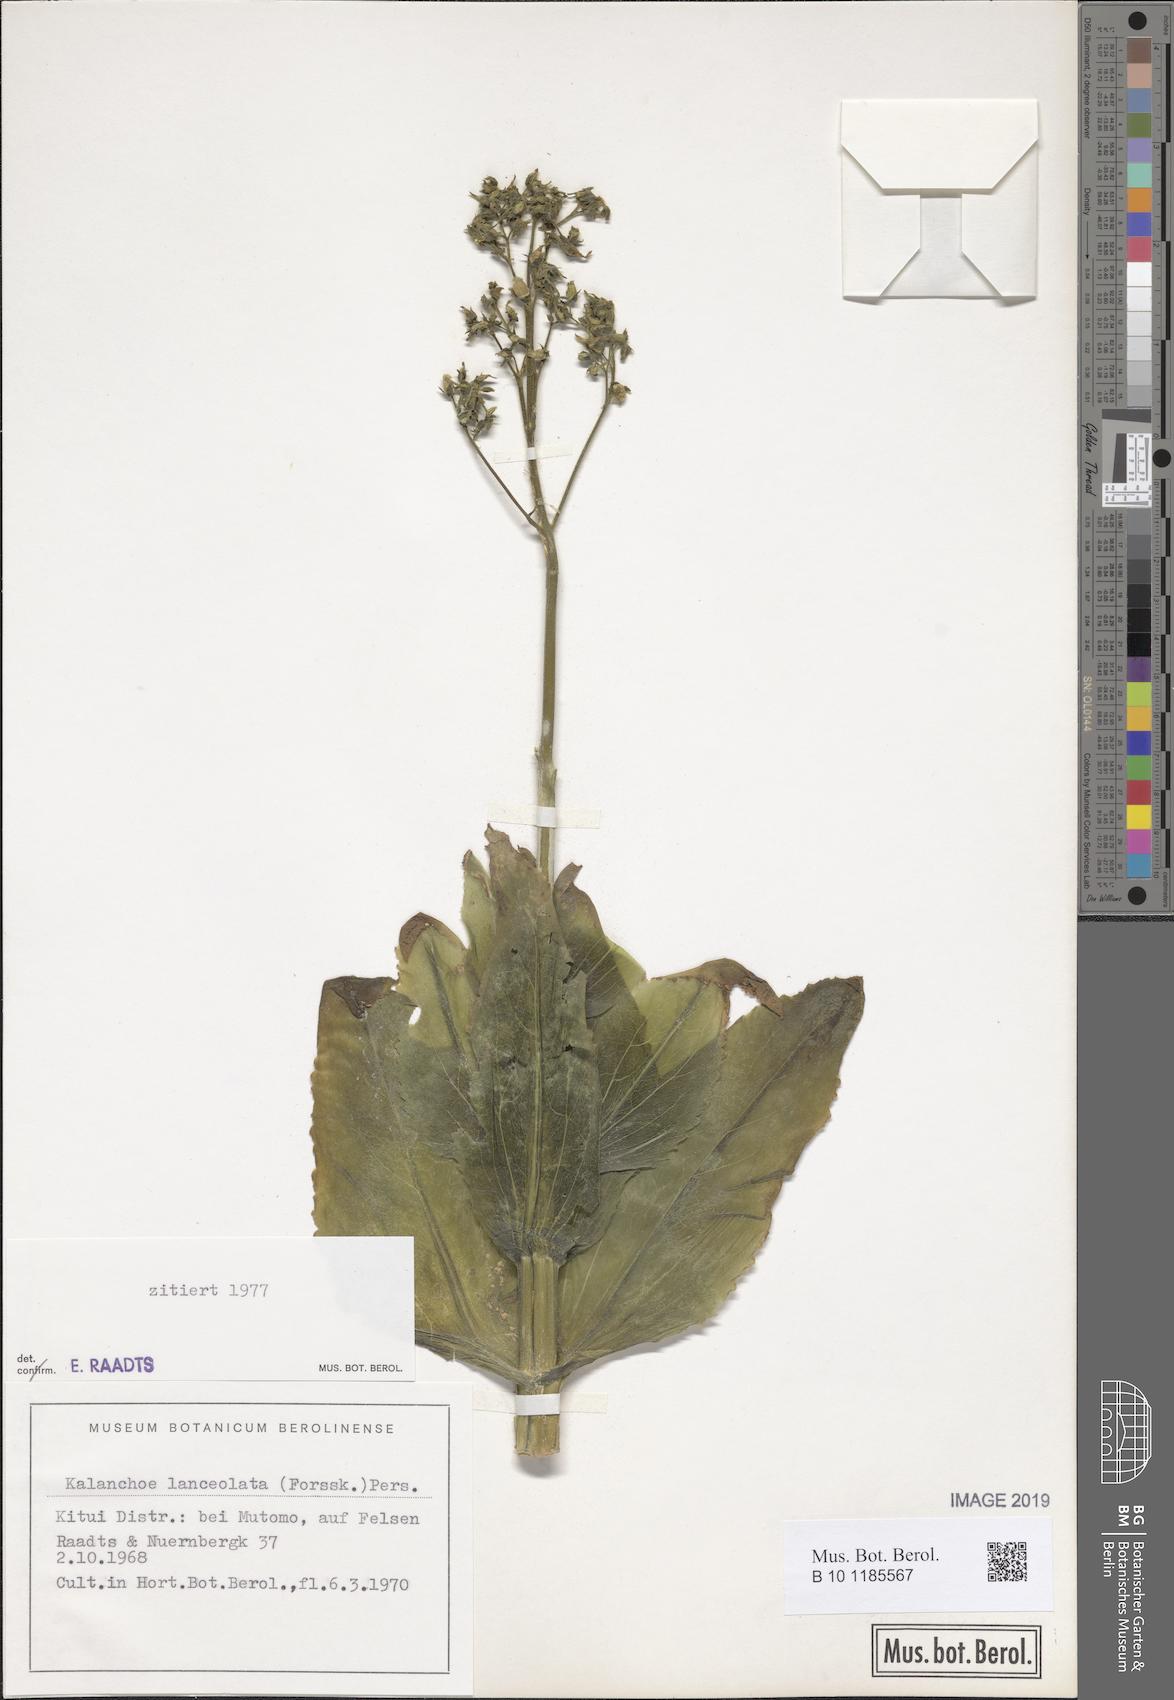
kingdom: Plantae
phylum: Tracheophyta
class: Magnoliopsida
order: Saxifragales
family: Crassulaceae
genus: Kalanchoe
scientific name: Kalanchoe lanceolata
